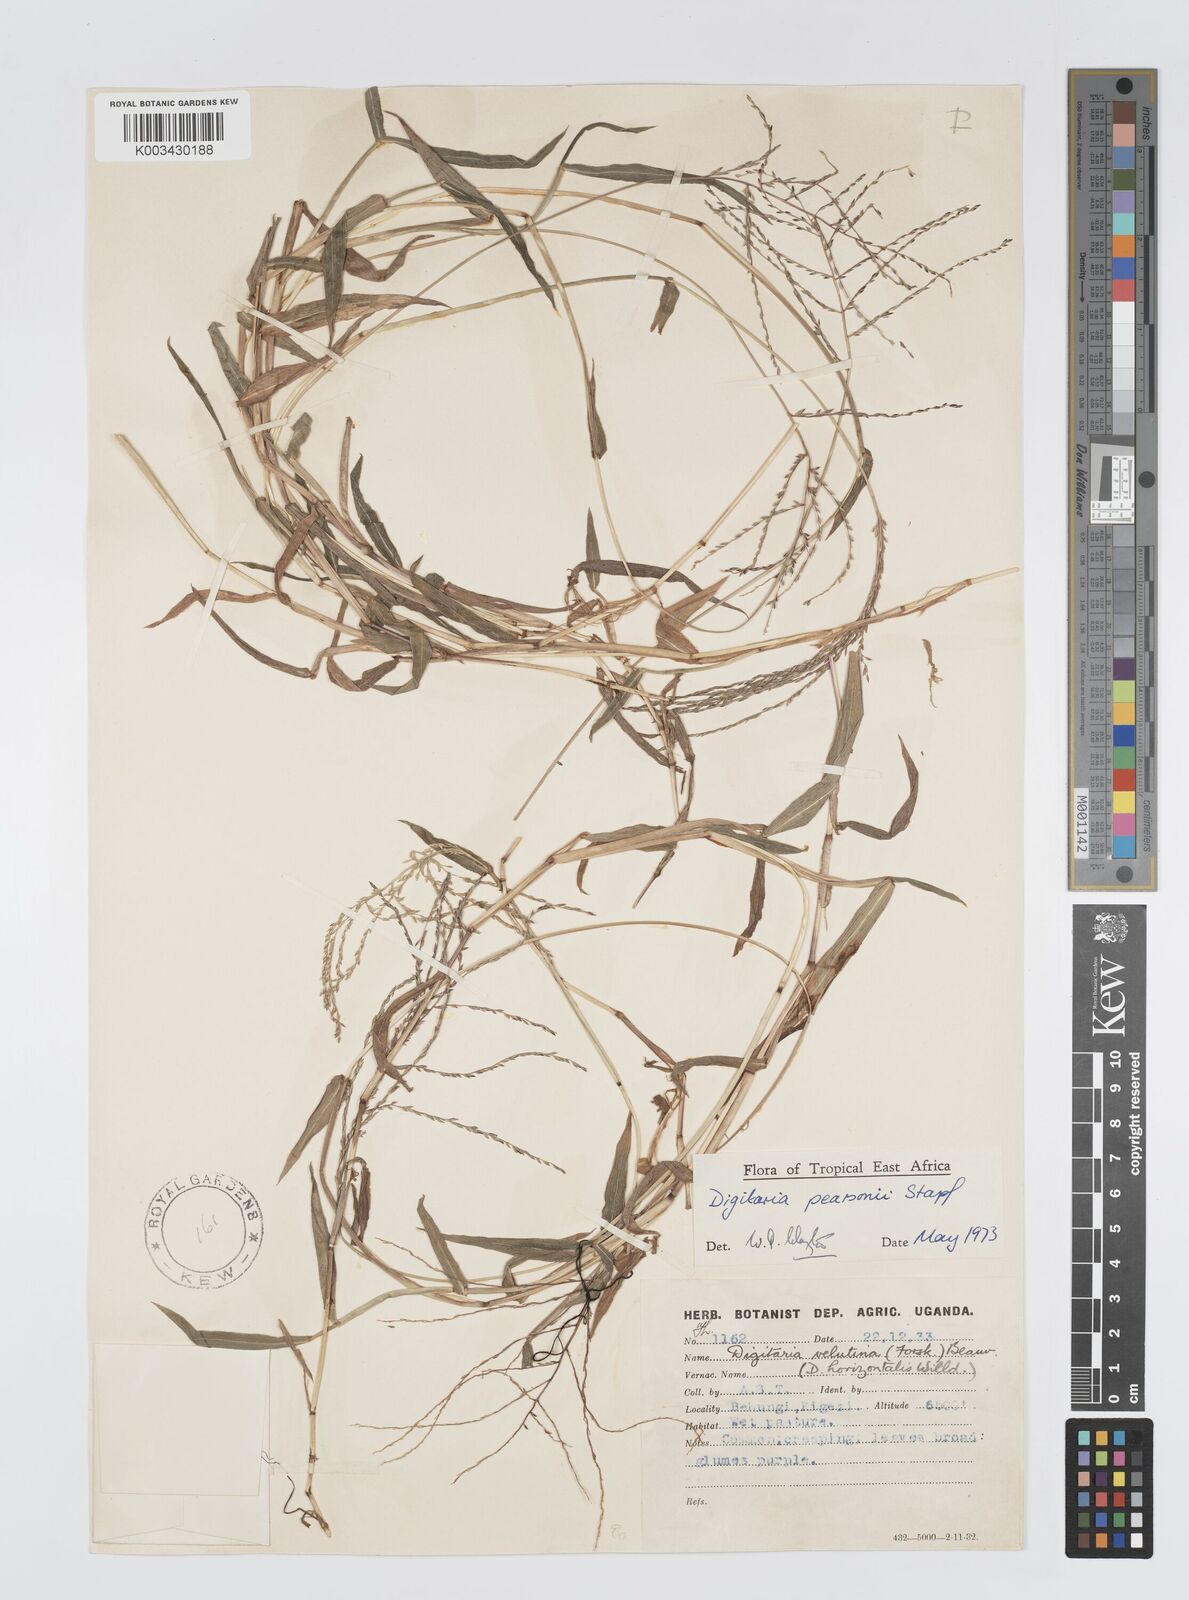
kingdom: Plantae
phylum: Tracheophyta
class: Liliopsida
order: Poales
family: Poaceae
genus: Digitaria
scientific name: Digitaria pearsonii
